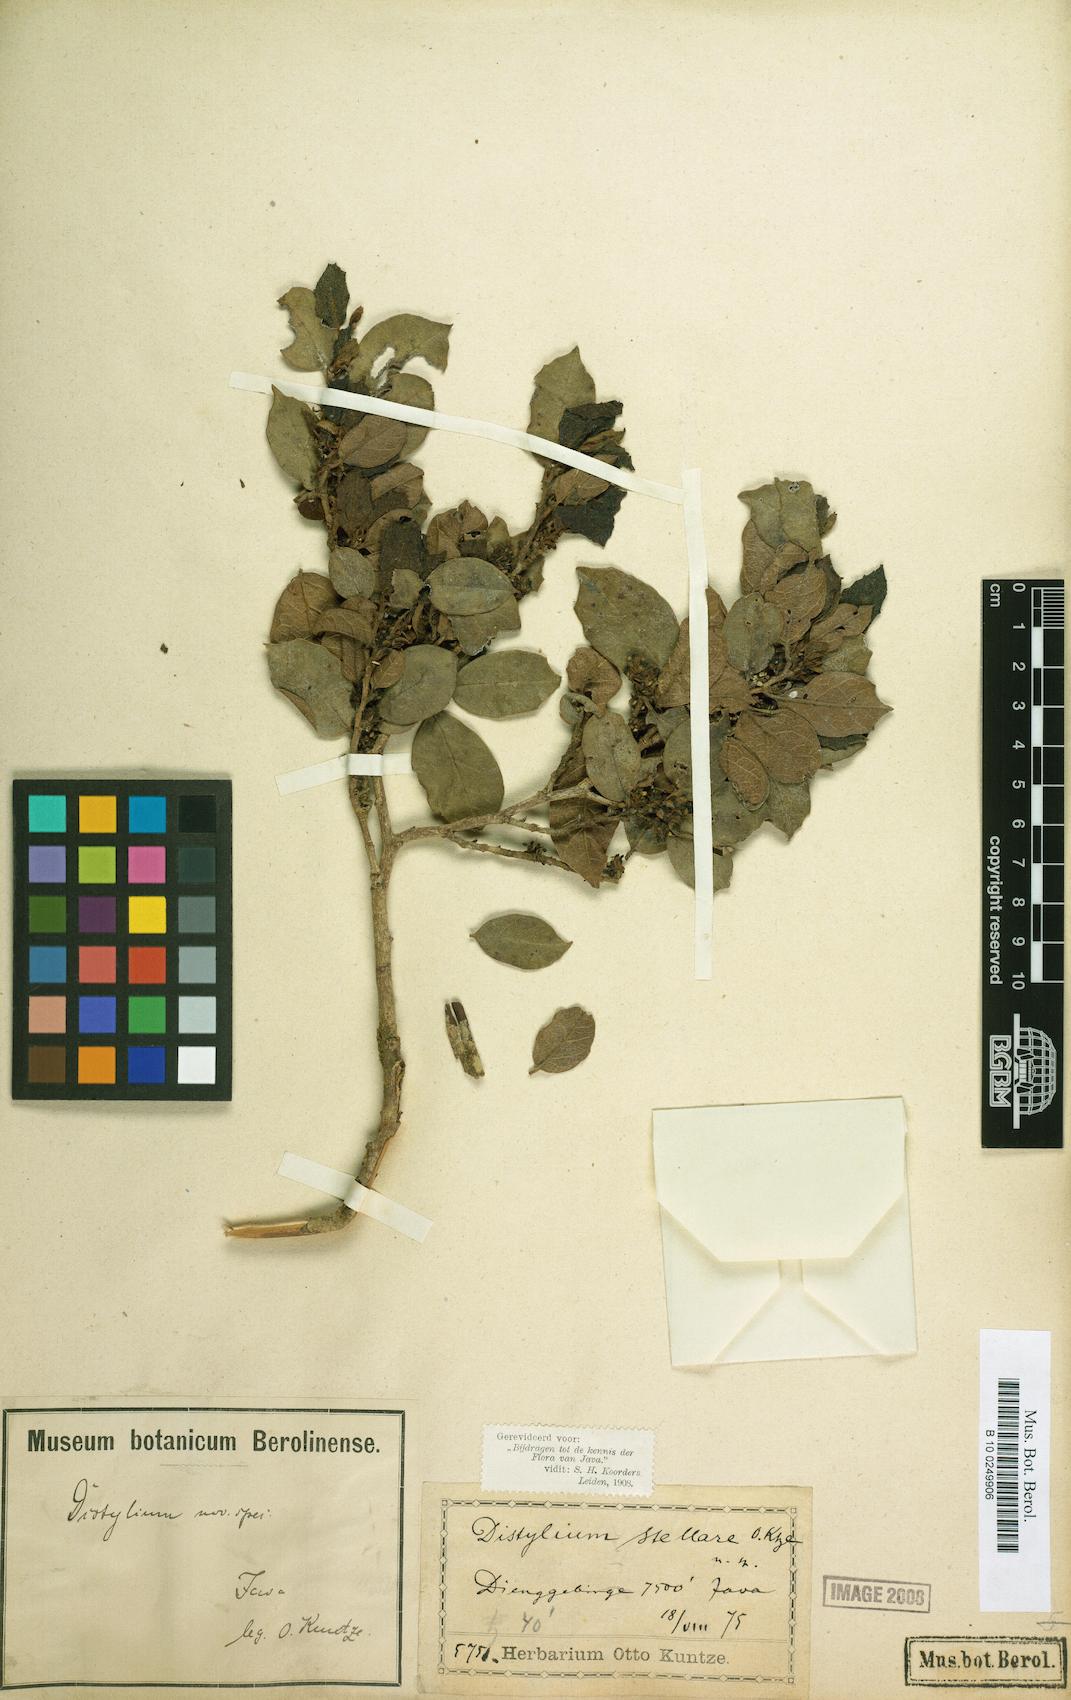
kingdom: Plantae
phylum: Tracheophyta
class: Magnoliopsida
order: Saxifragales
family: Hamamelidaceae
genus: Distylium
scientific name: Distylium stellare
